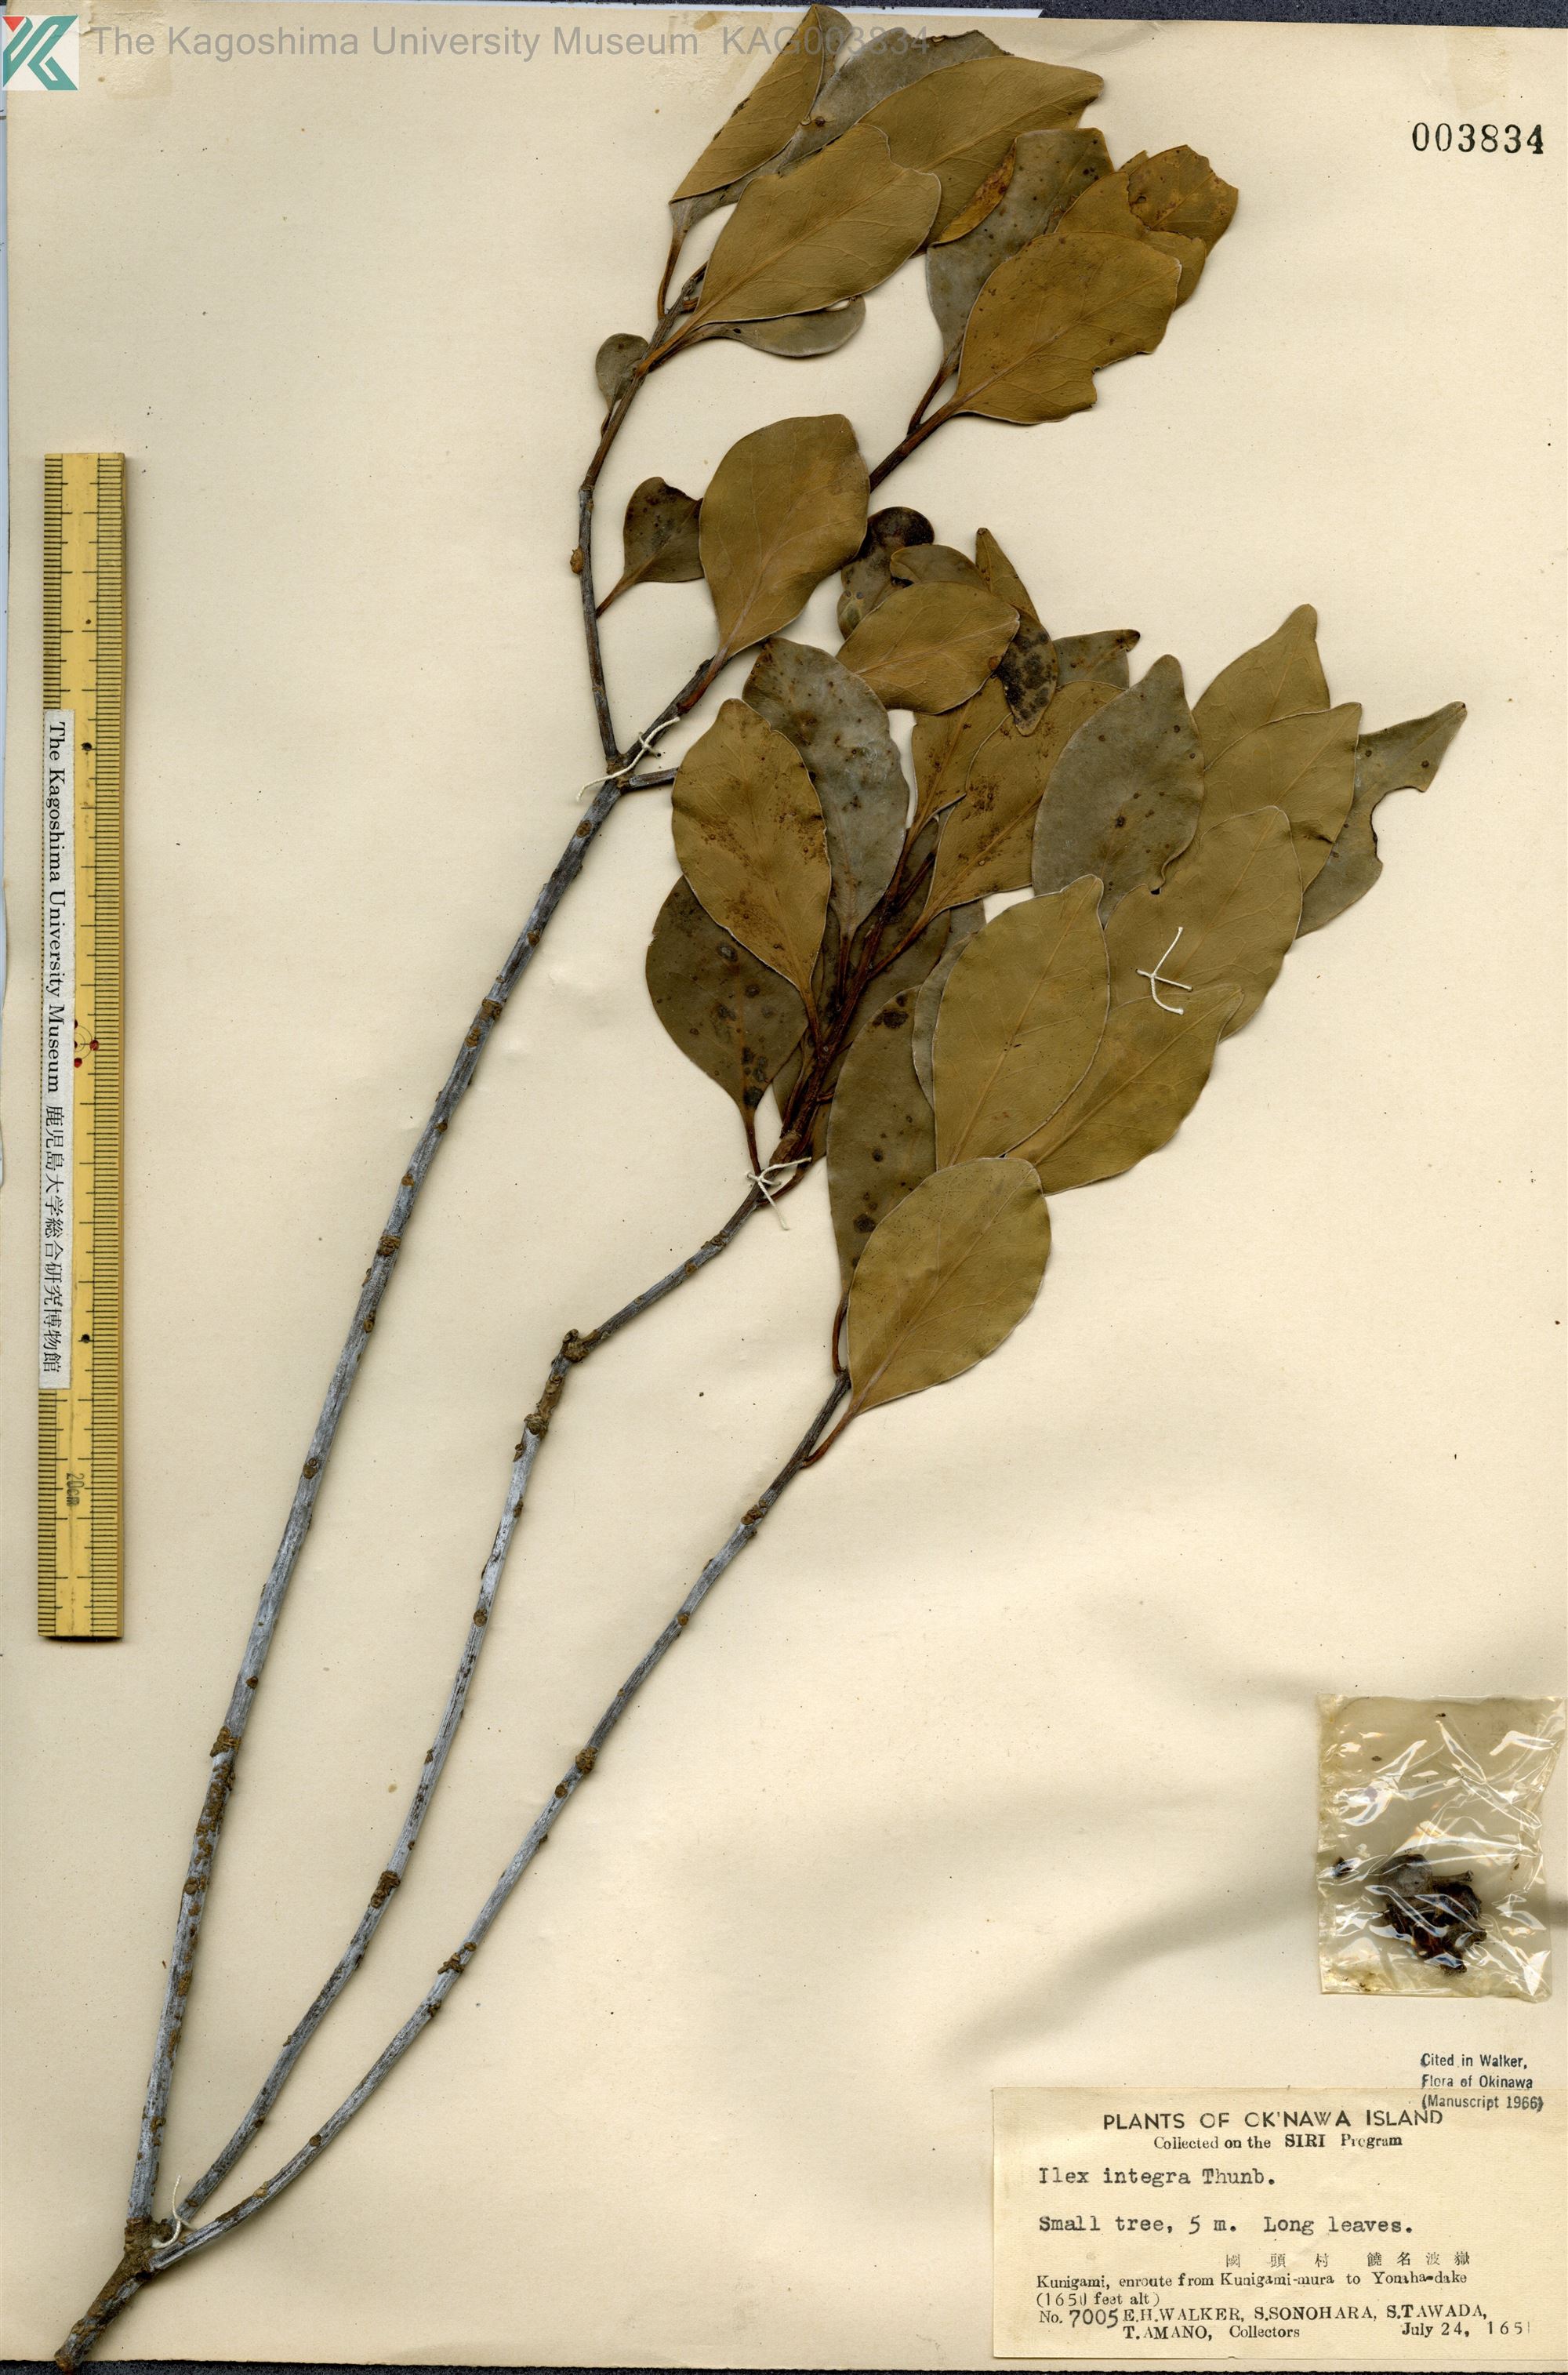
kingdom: Plantae
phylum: Tracheophyta
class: Magnoliopsida
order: Aquifoliales
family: Aquifoliaceae
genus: Ilex
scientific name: Ilex integra
